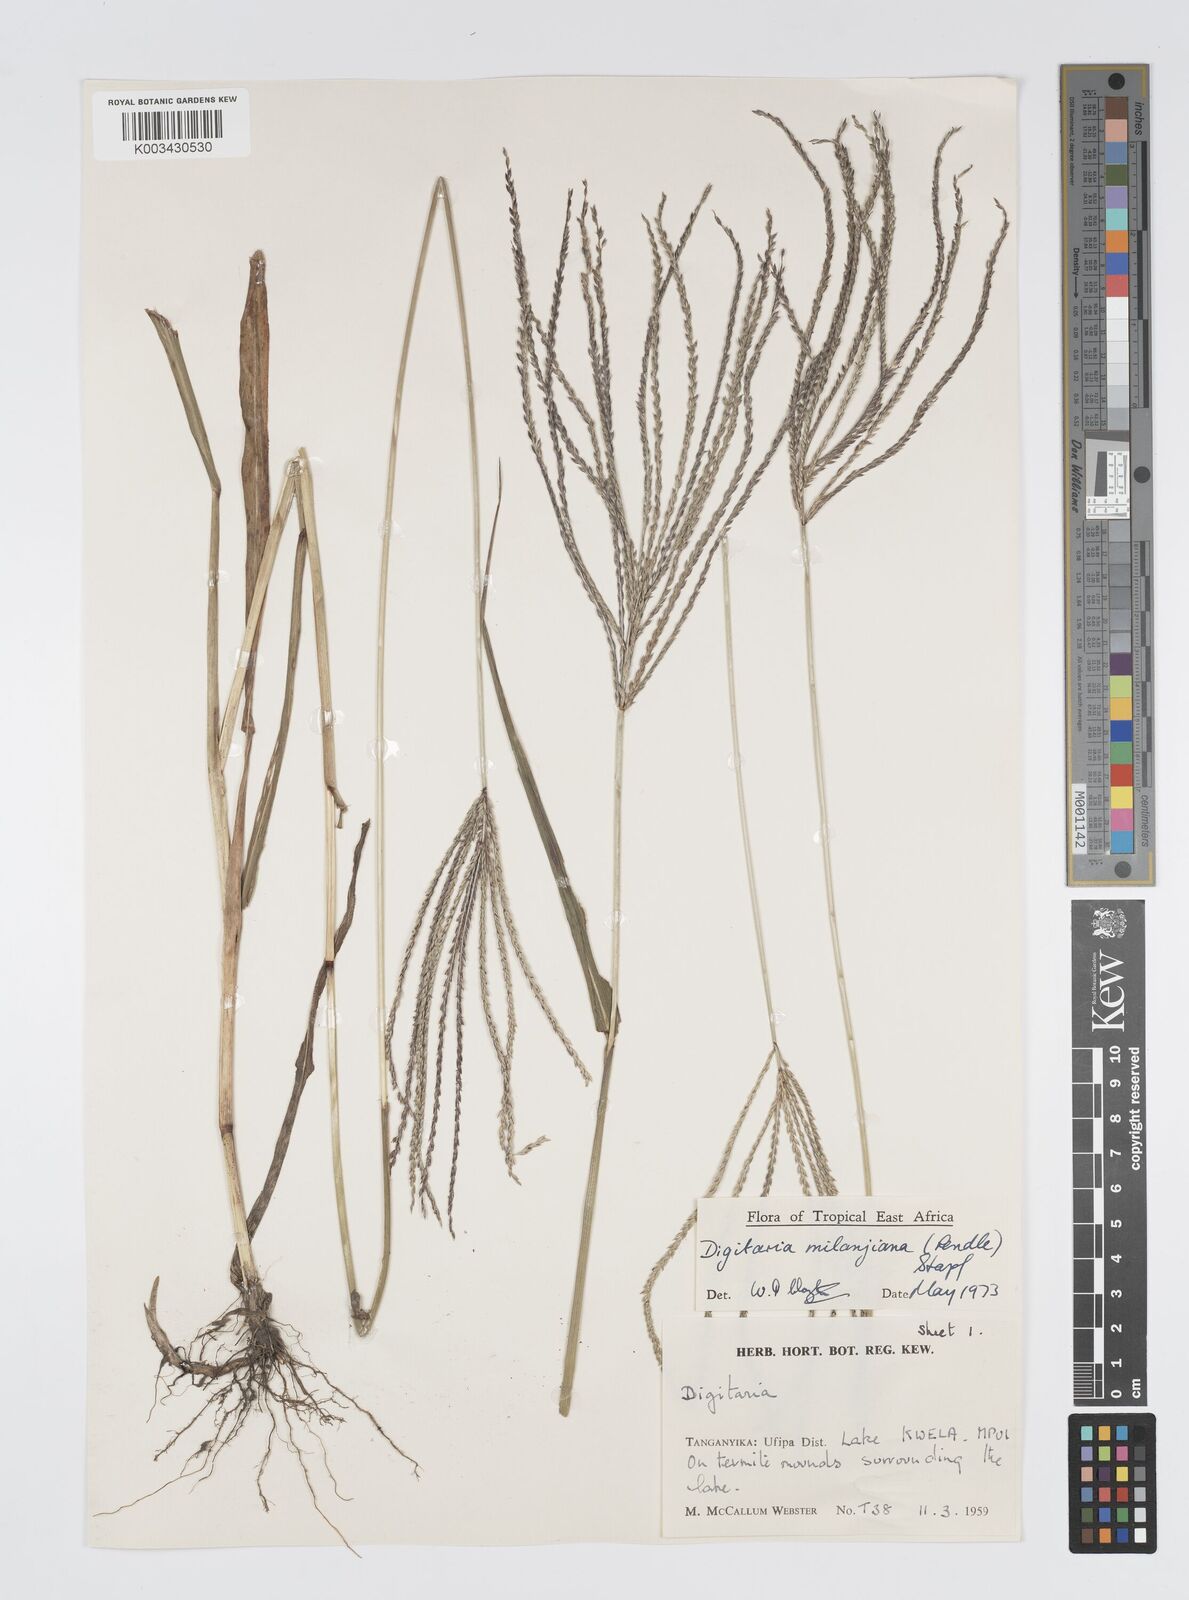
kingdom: Plantae
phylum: Tracheophyta
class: Liliopsida
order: Poales
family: Poaceae
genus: Digitaria
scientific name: Digitaria milanjiana
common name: Madagascar crabgrass
